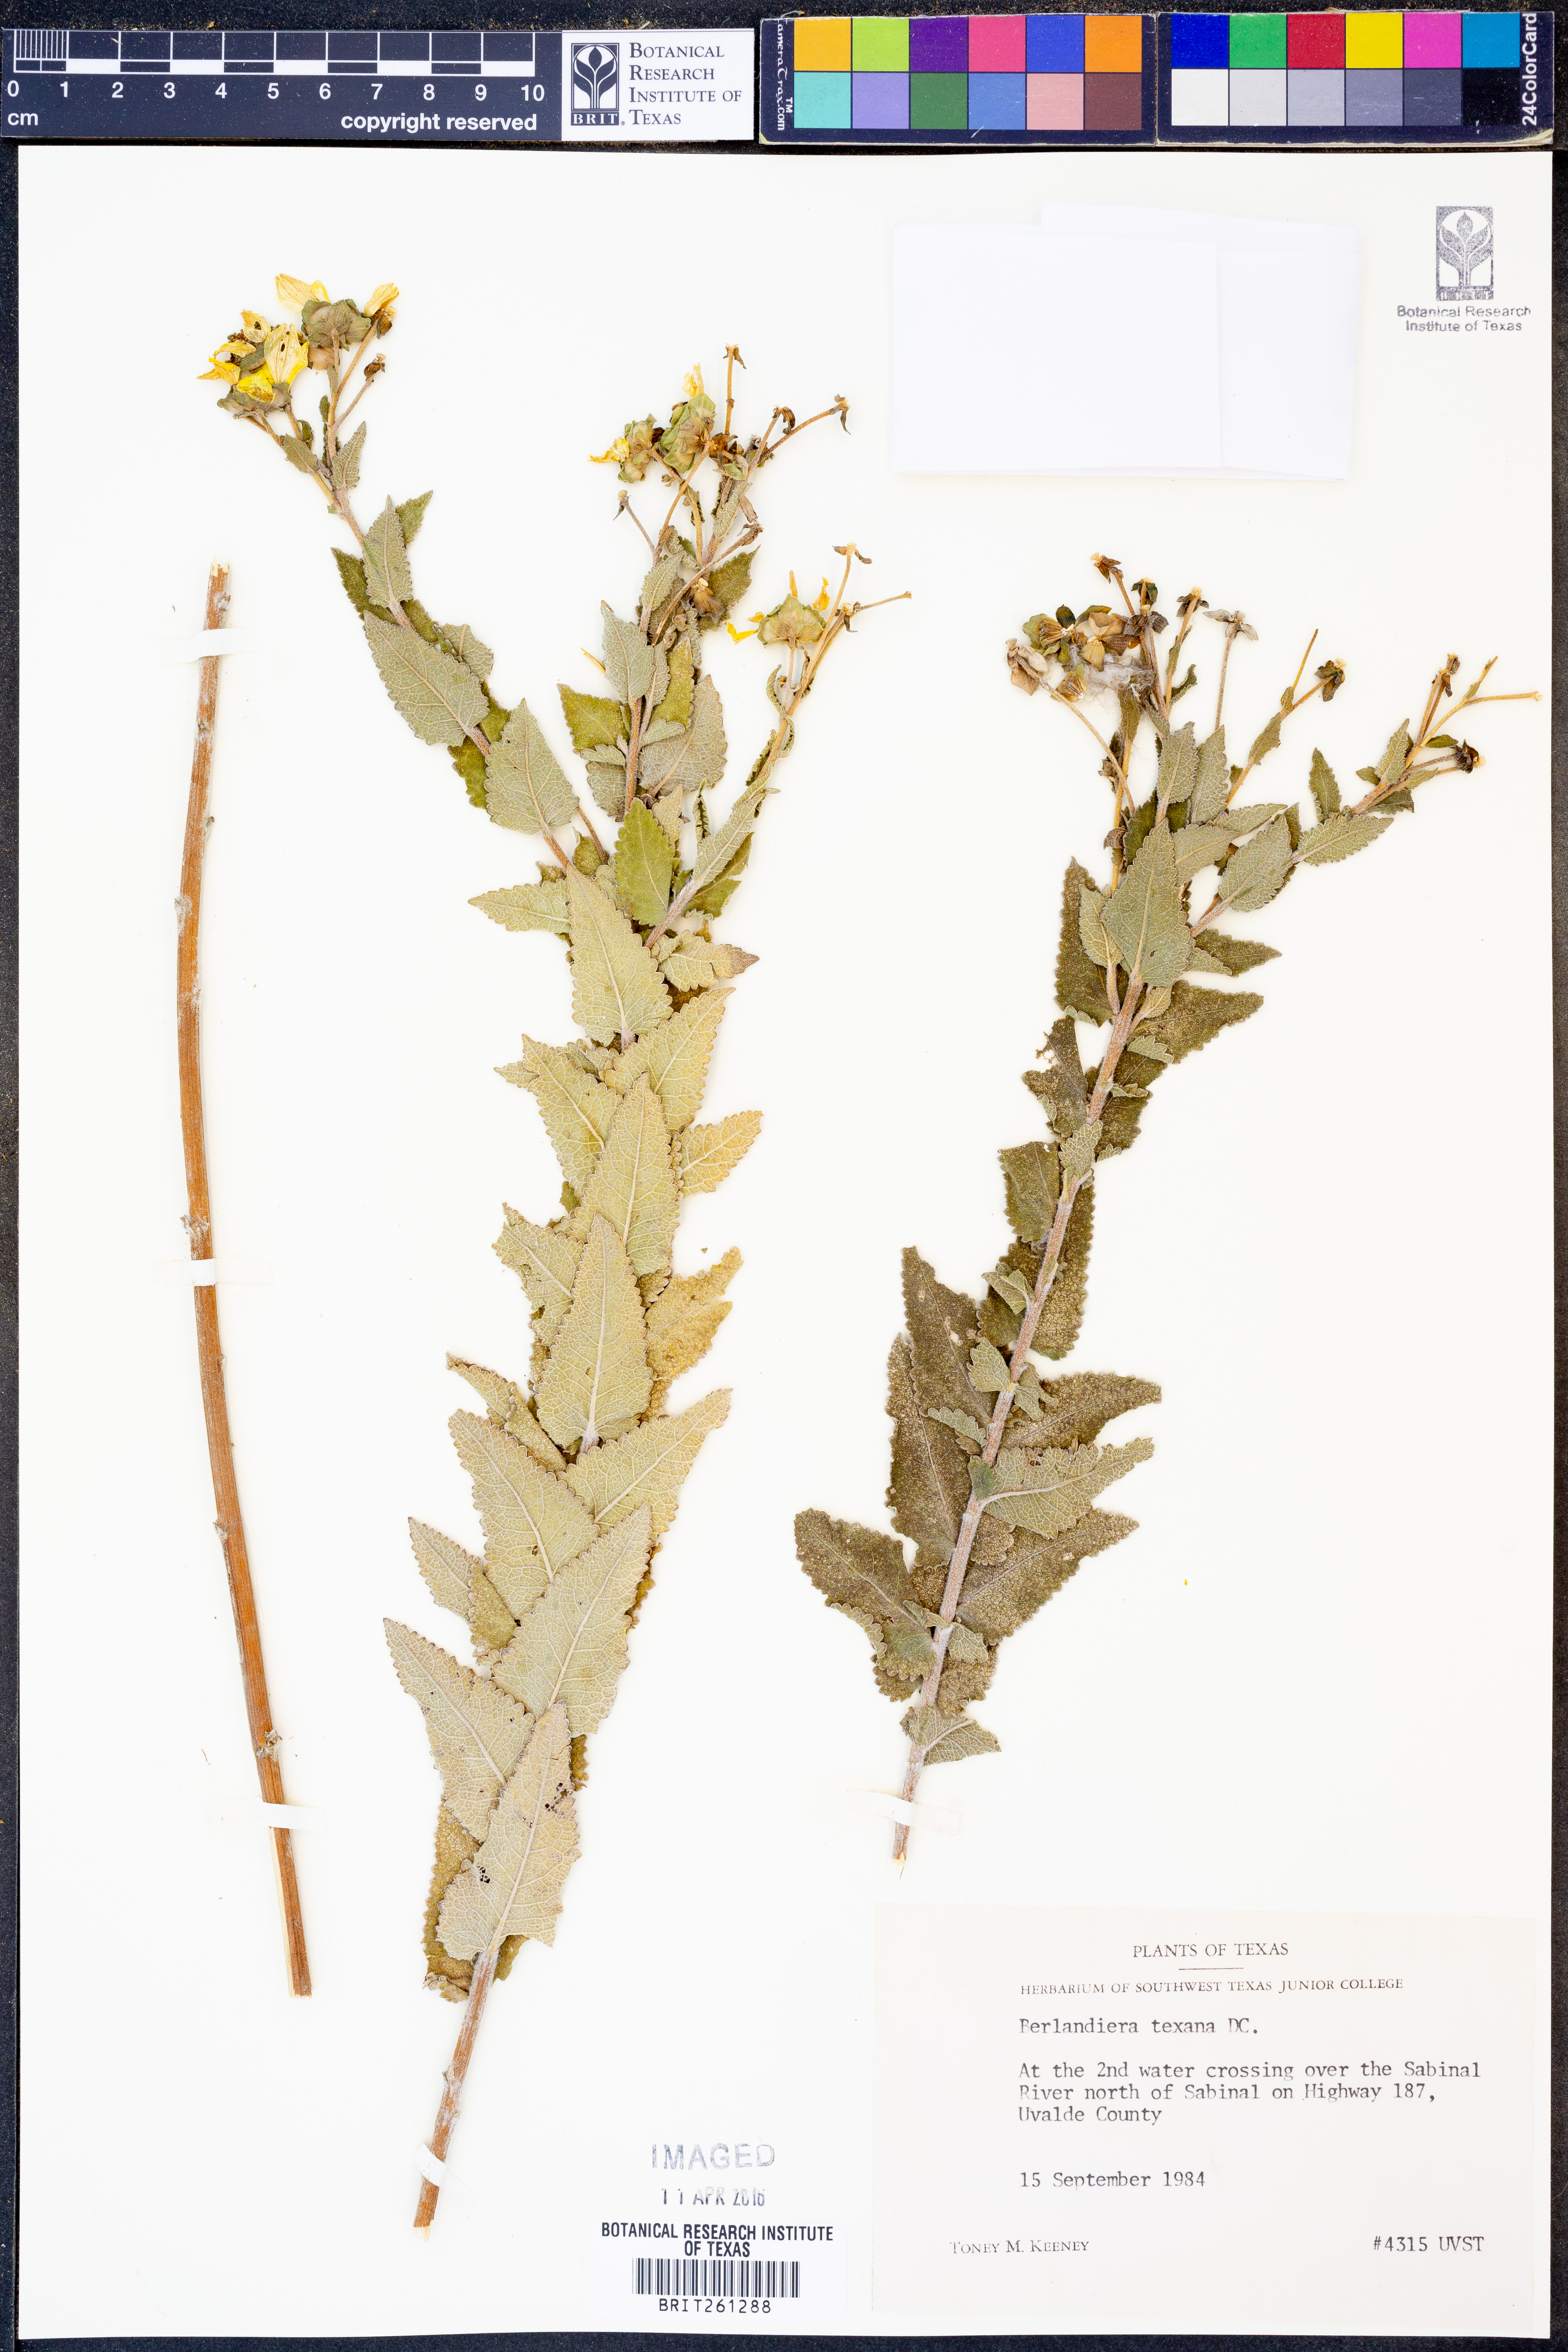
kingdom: Plantae
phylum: Tracheophyta
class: Magnoliopsida
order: Asterales
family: Asteraceae
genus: Berlandiera
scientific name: Berlandiera texana
